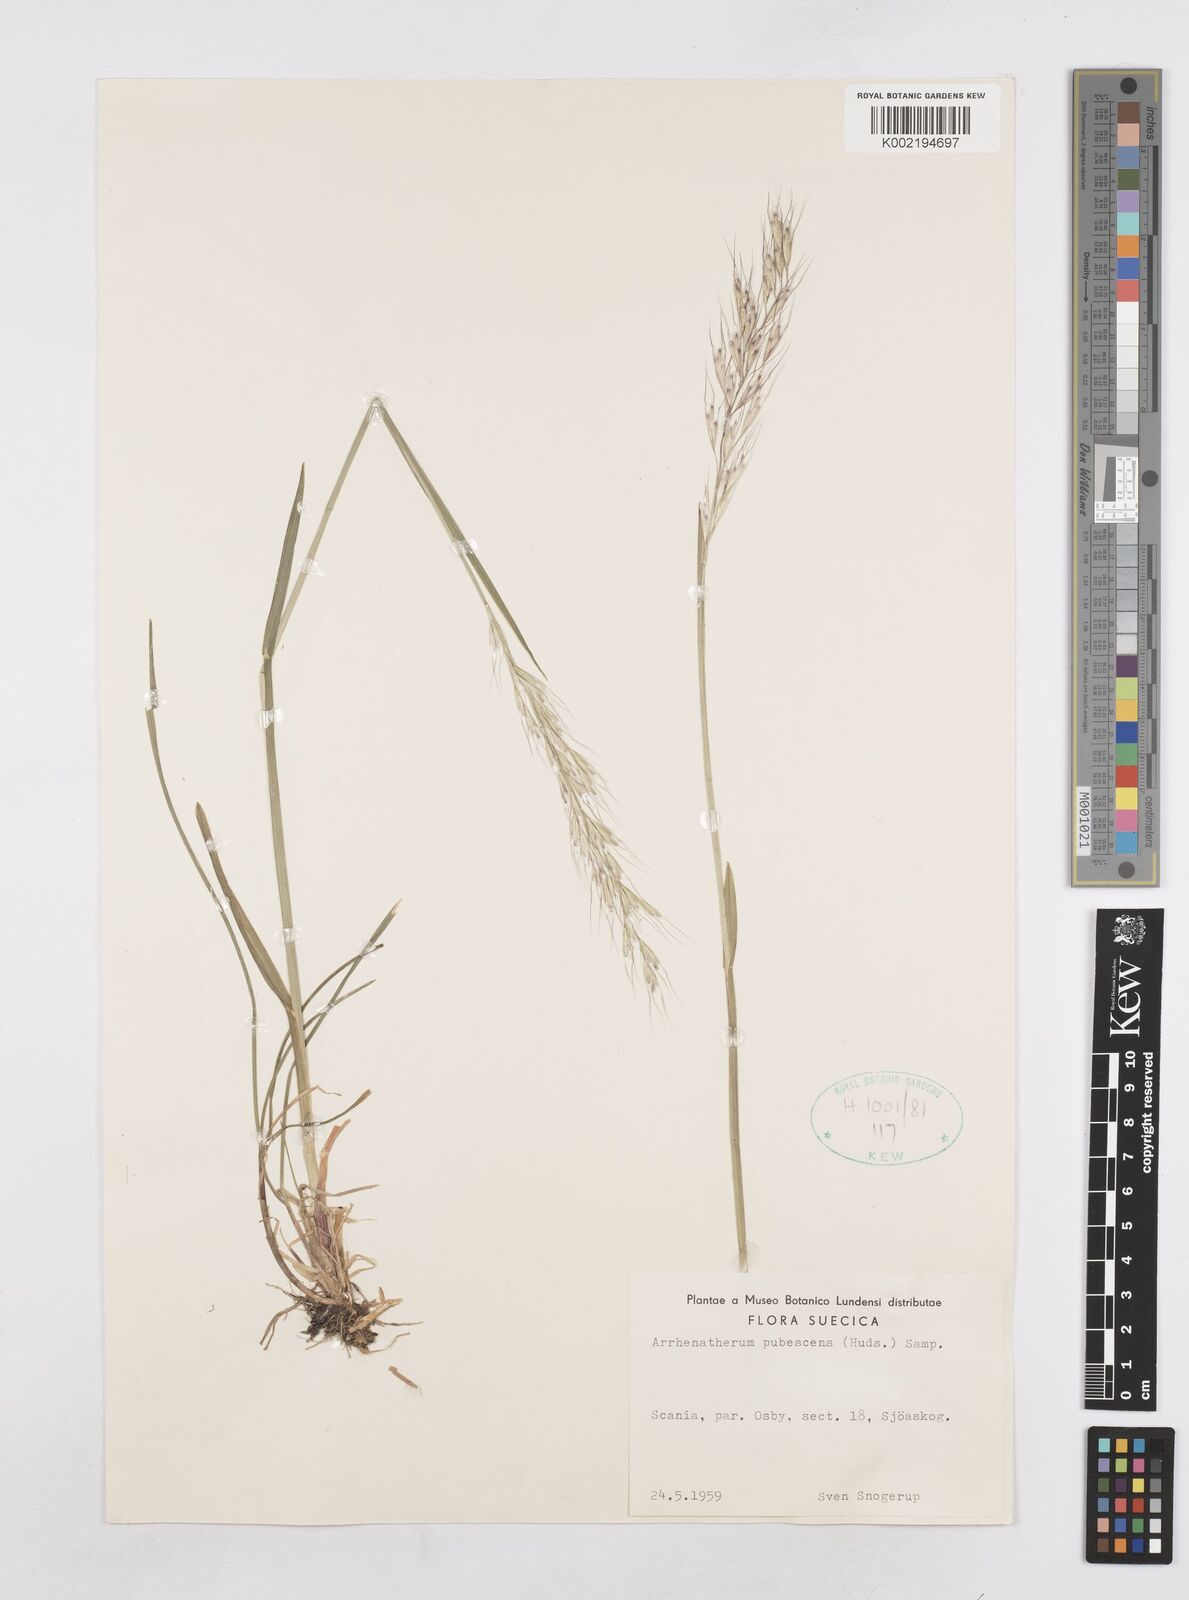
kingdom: Plantae
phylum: Tracheophyta
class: Liliopsida
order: Poales
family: Poaceae
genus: Avenula
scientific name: Avenula pubescens
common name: Downy alpine oatgrass
